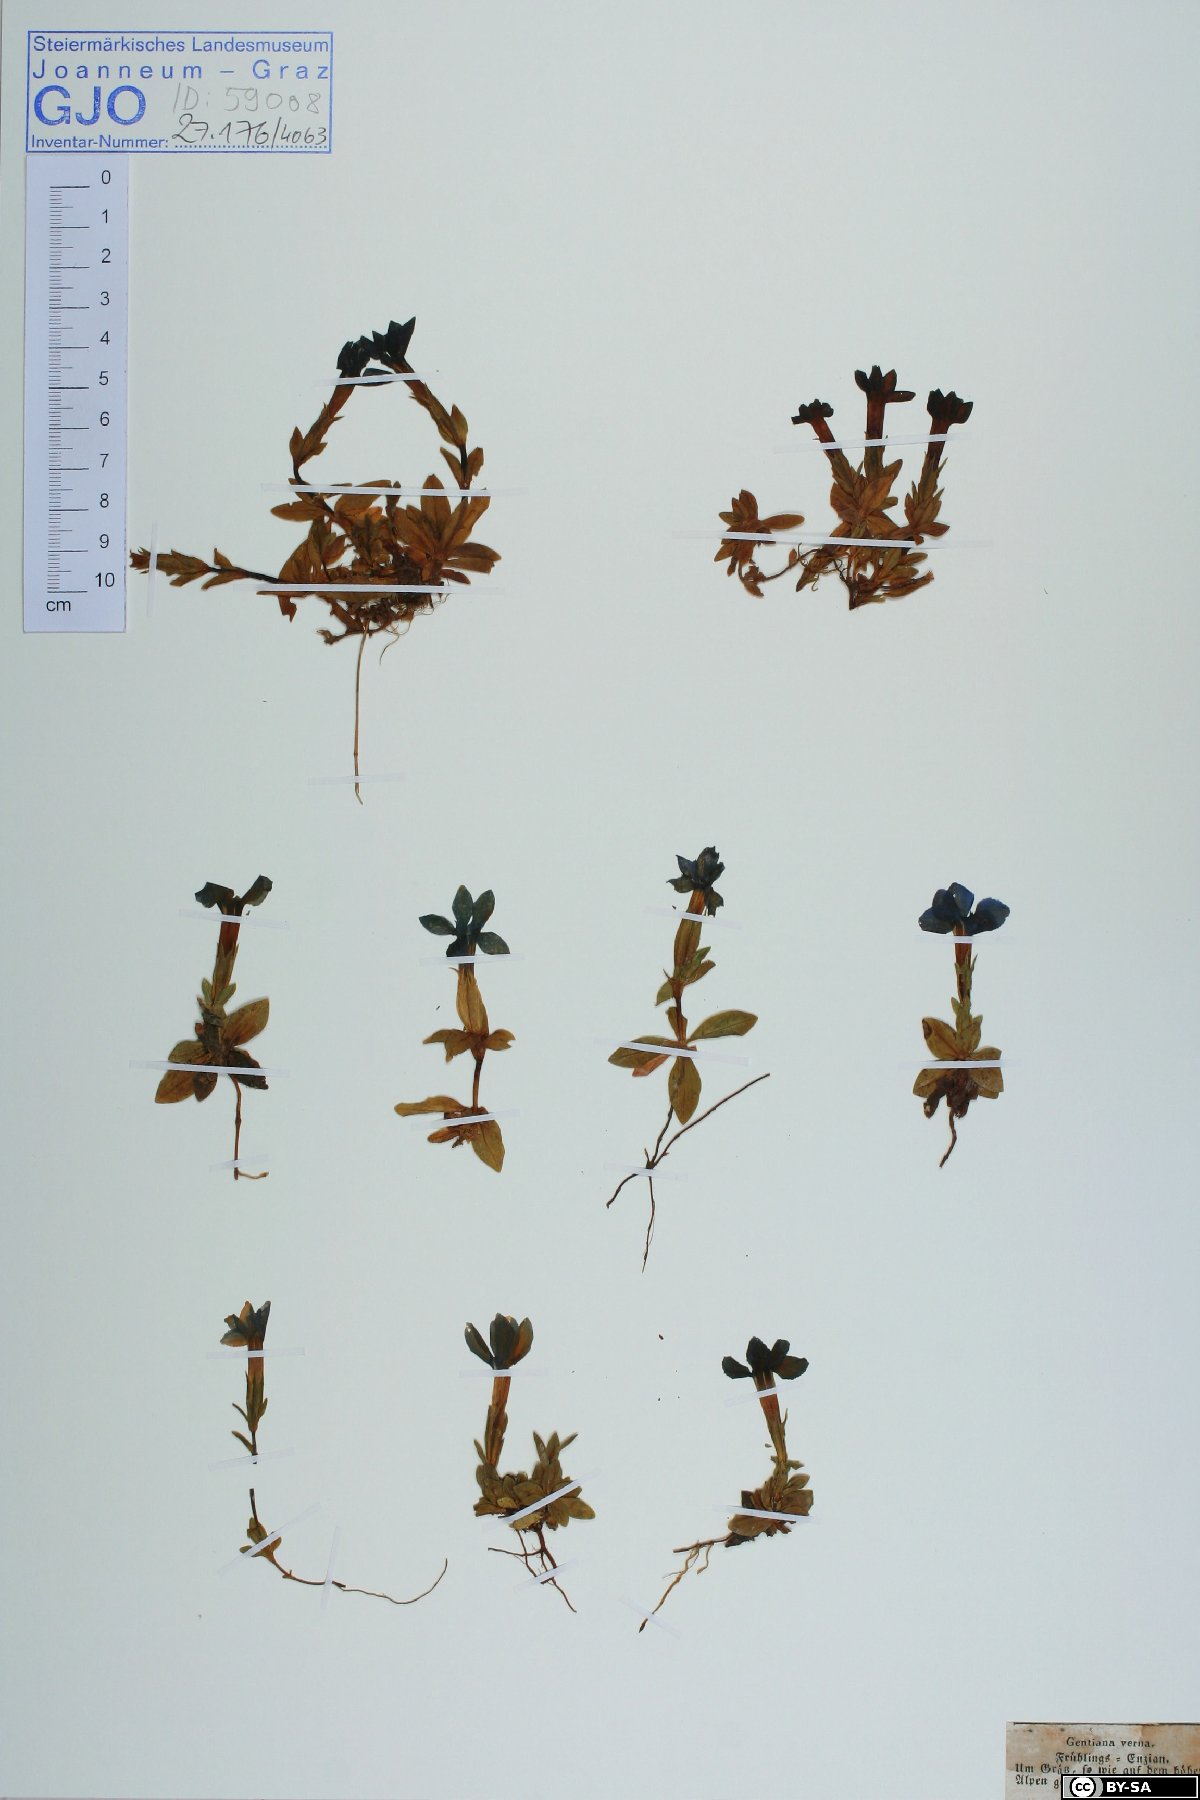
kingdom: Plantae
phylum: Tracheophyta
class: Magnoliopsida
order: Gentianales
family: Gentianaceae
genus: Gentiana
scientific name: Gentiana verna
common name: Spring gentian
